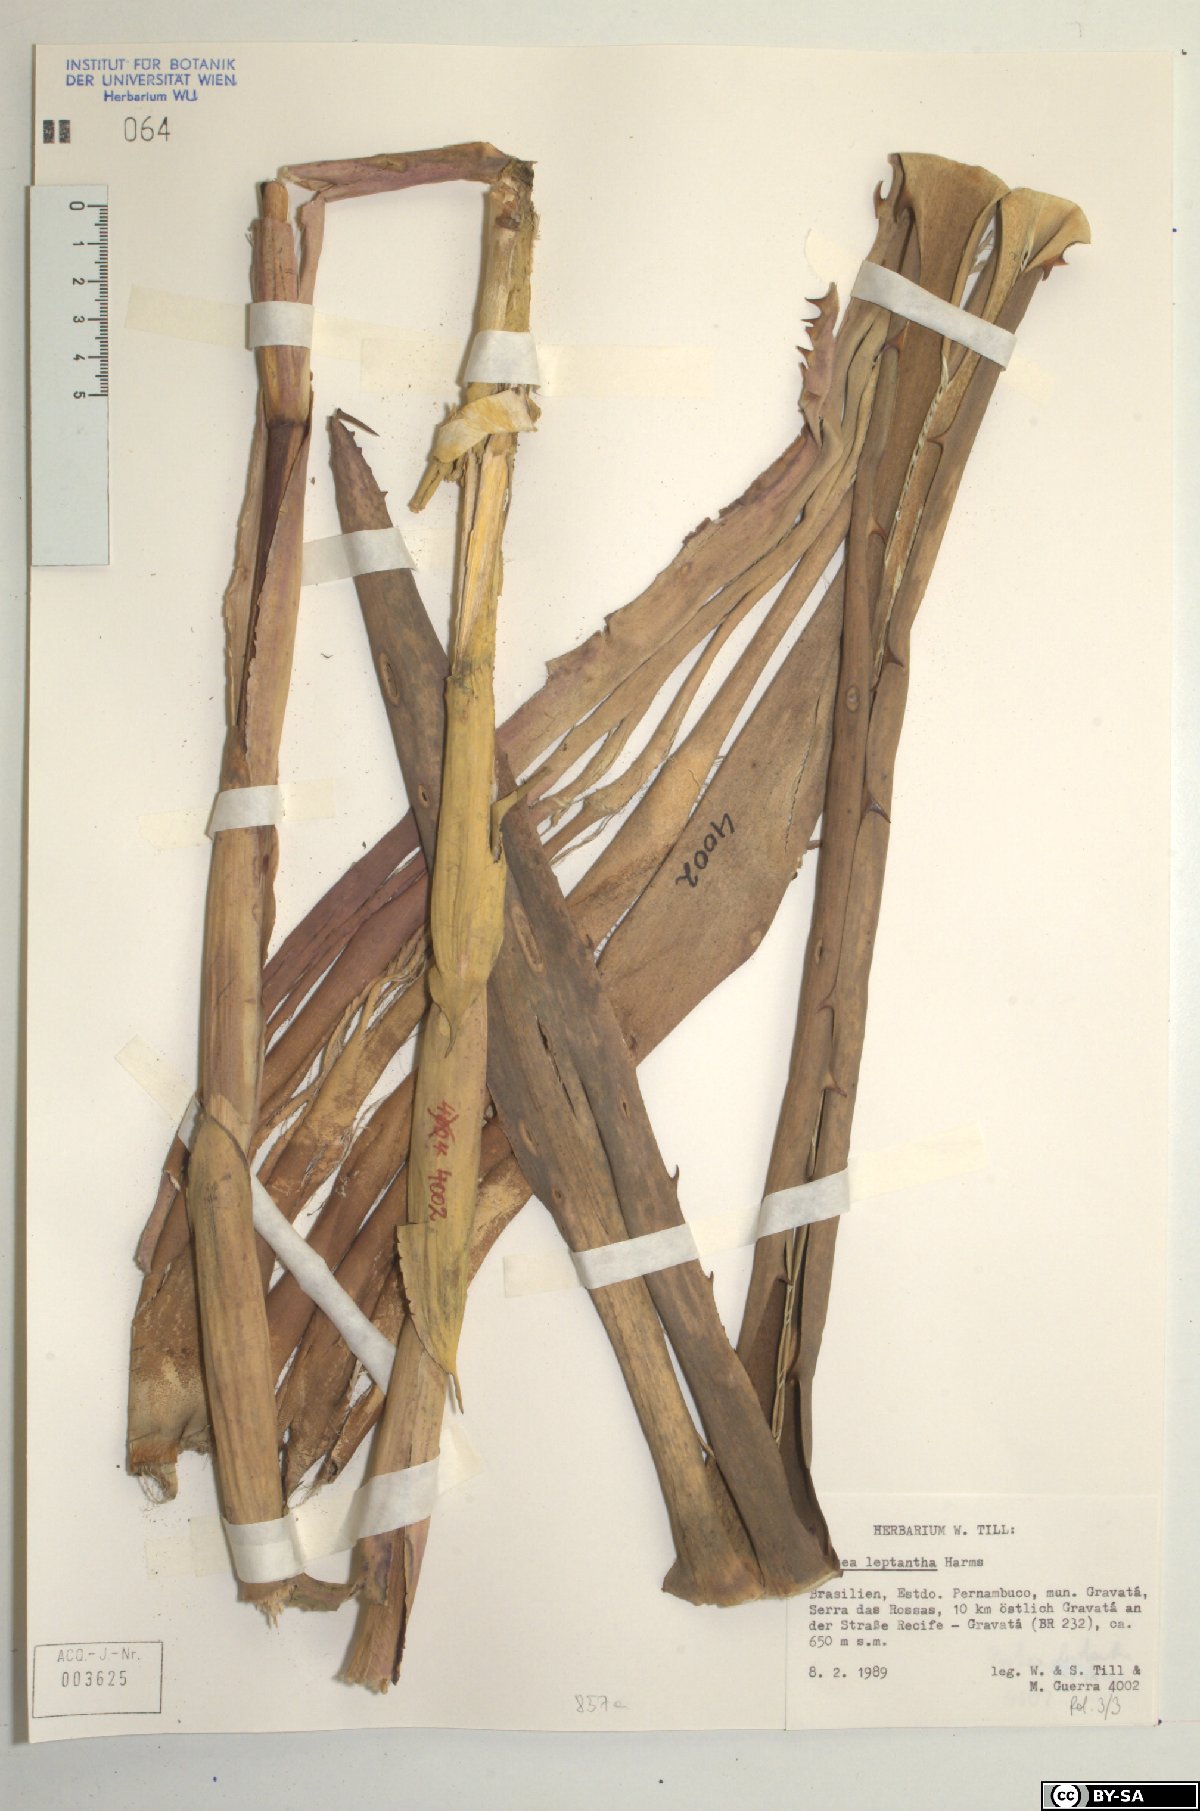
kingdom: Plantae
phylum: Tracheophyta
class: Liliopsida
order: Poales
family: Bromeliaceae
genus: Aechmea
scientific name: Aechmea leptantha
